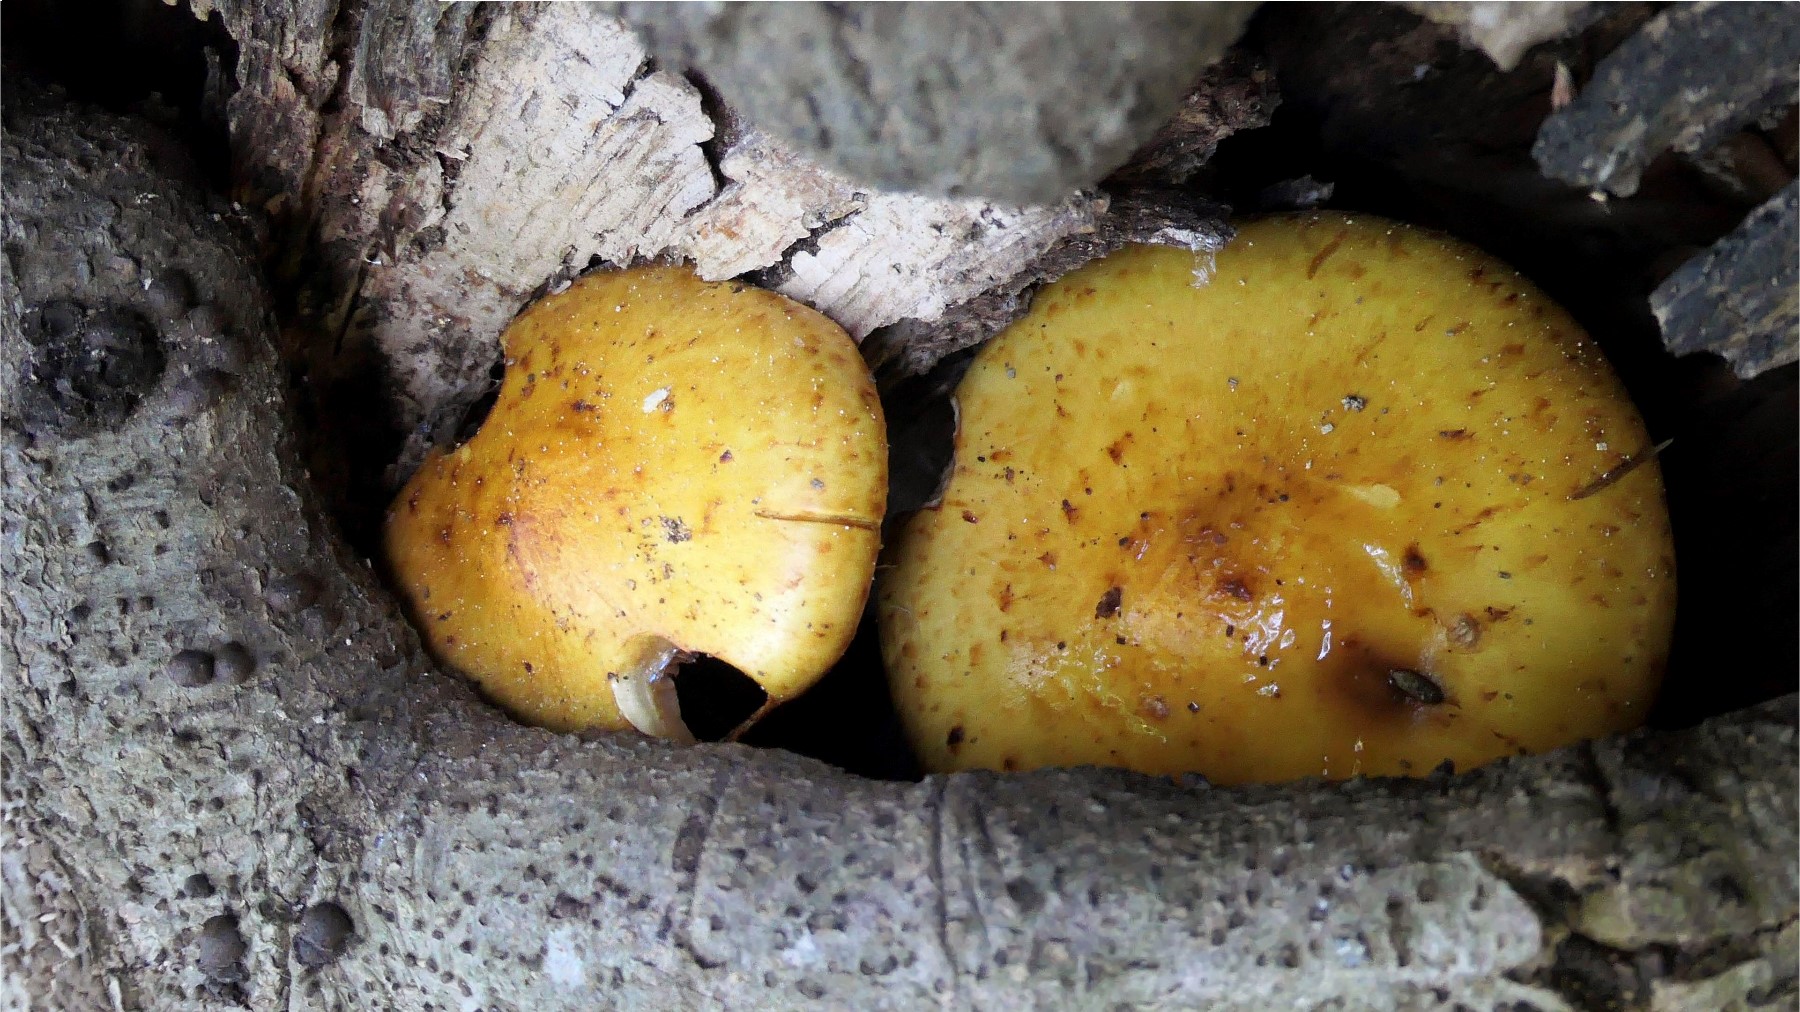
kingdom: Fungi
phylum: Basidiomycota
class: Agaricomycetes
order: Agaricales
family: Strophariaceae
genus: Pholiota
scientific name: Pholiota jahnii
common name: slimet skælhat
